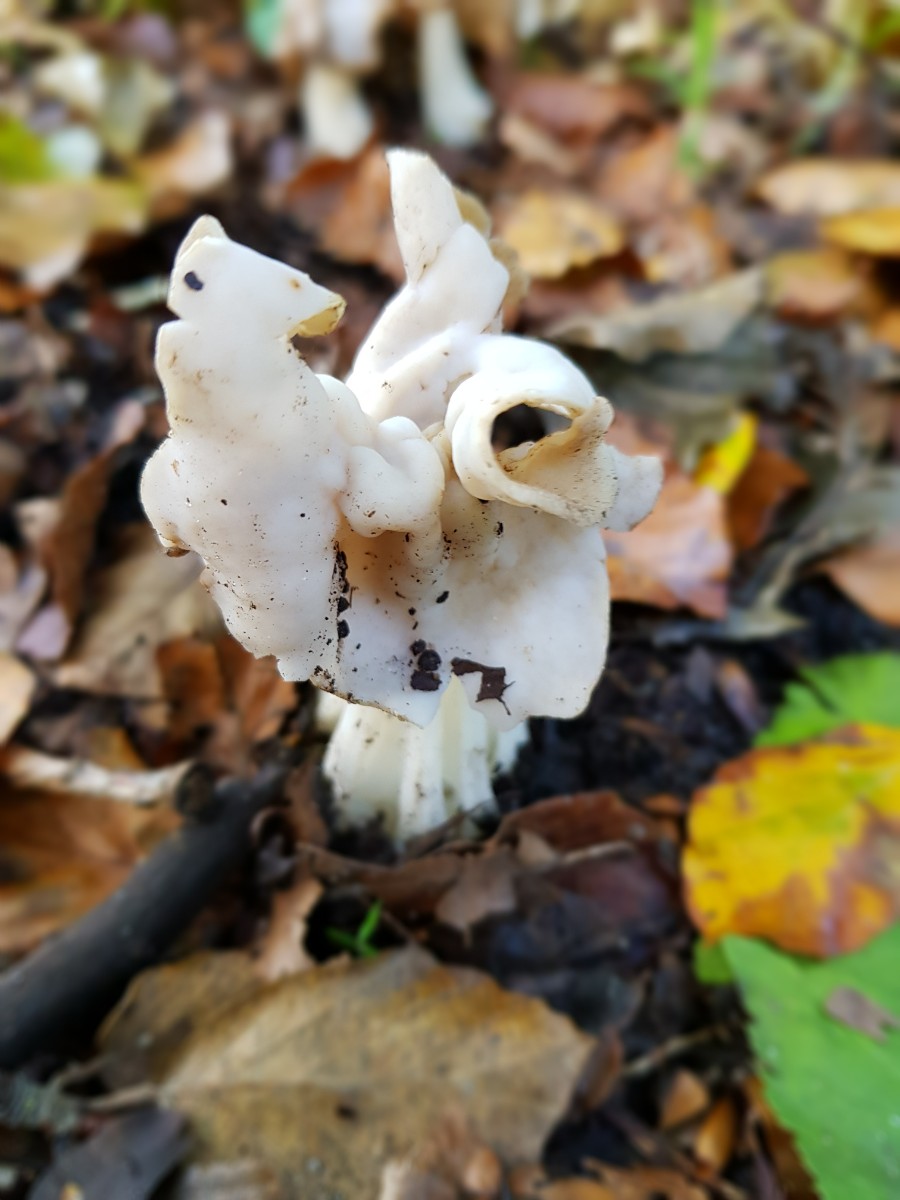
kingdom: Fungi
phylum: Ascomycota
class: Pezizomycetes
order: Pezizales
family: Helvellaceae
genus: Helvella
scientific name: Helvella crispa
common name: kruset foldhat
